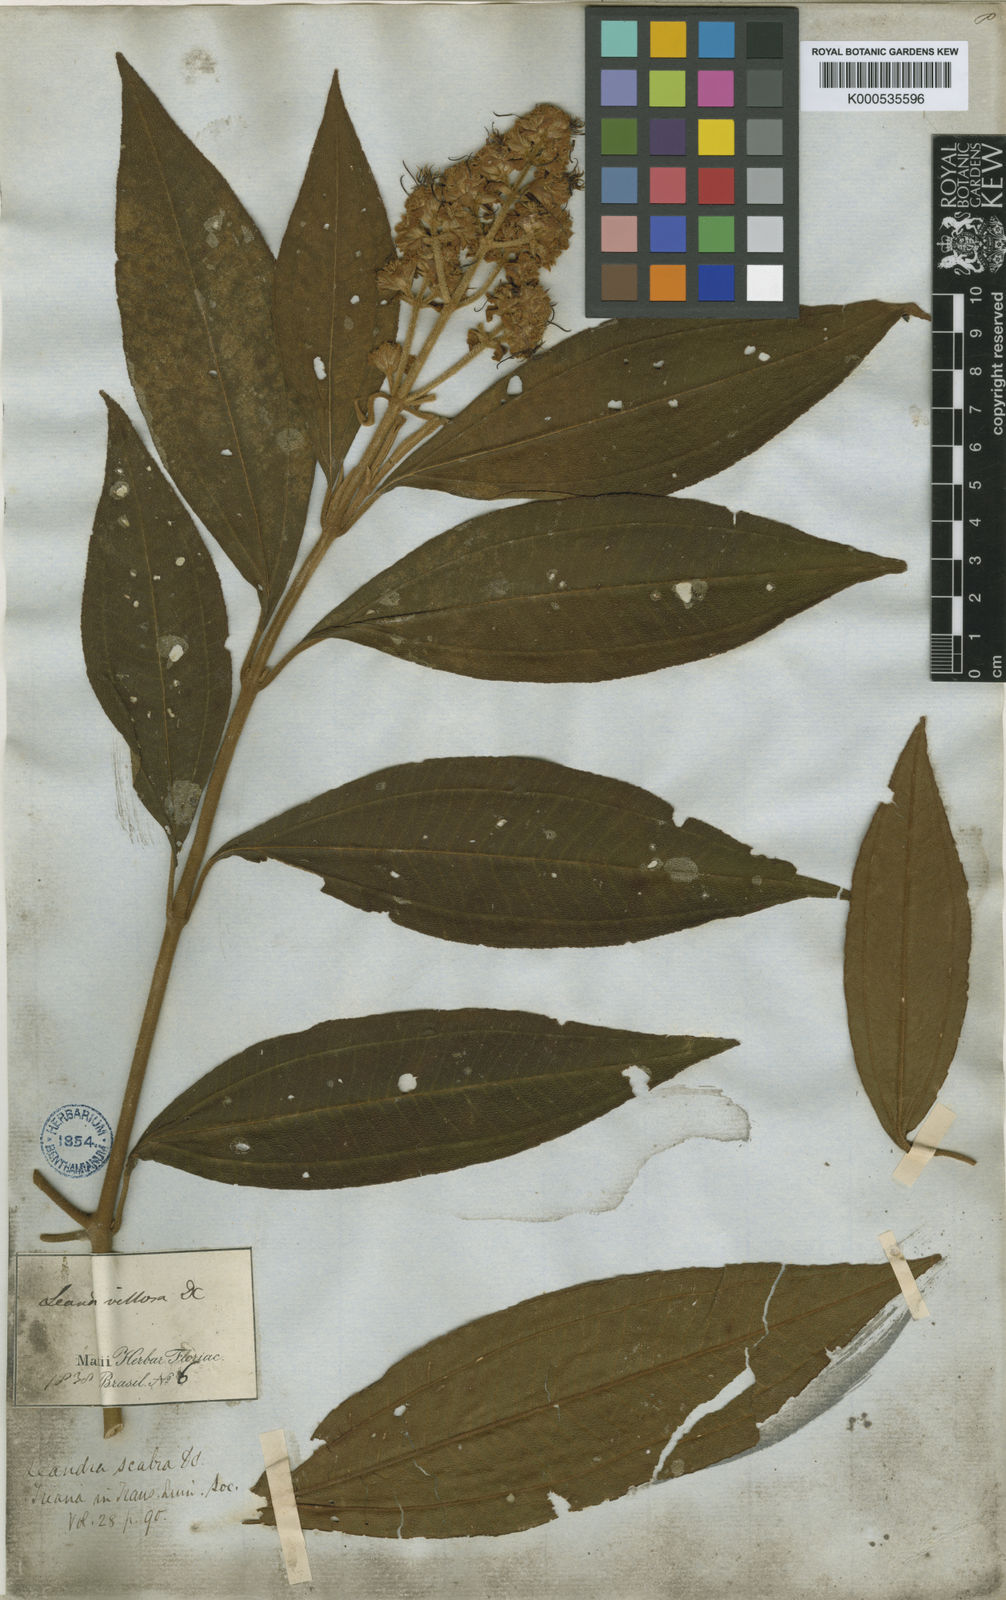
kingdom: Plantae
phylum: Tracheophyta
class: Magnoliopsida
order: Myrtales
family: Melastomataceae
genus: Miconia
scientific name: Miconia melastomoides
